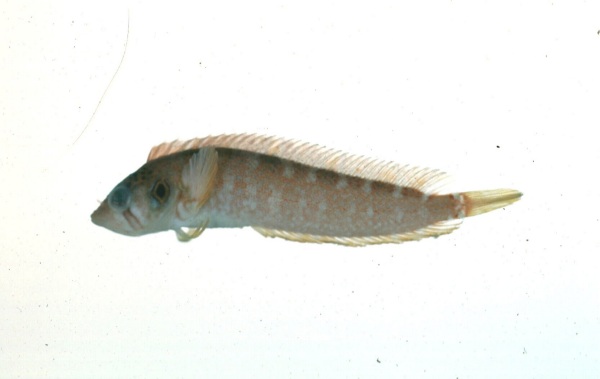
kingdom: Animalia
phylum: Chordata
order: Perciformes
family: Clinidae
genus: Pavoclinus
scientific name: Pavoclinus profundus
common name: Deepwater klipfish
